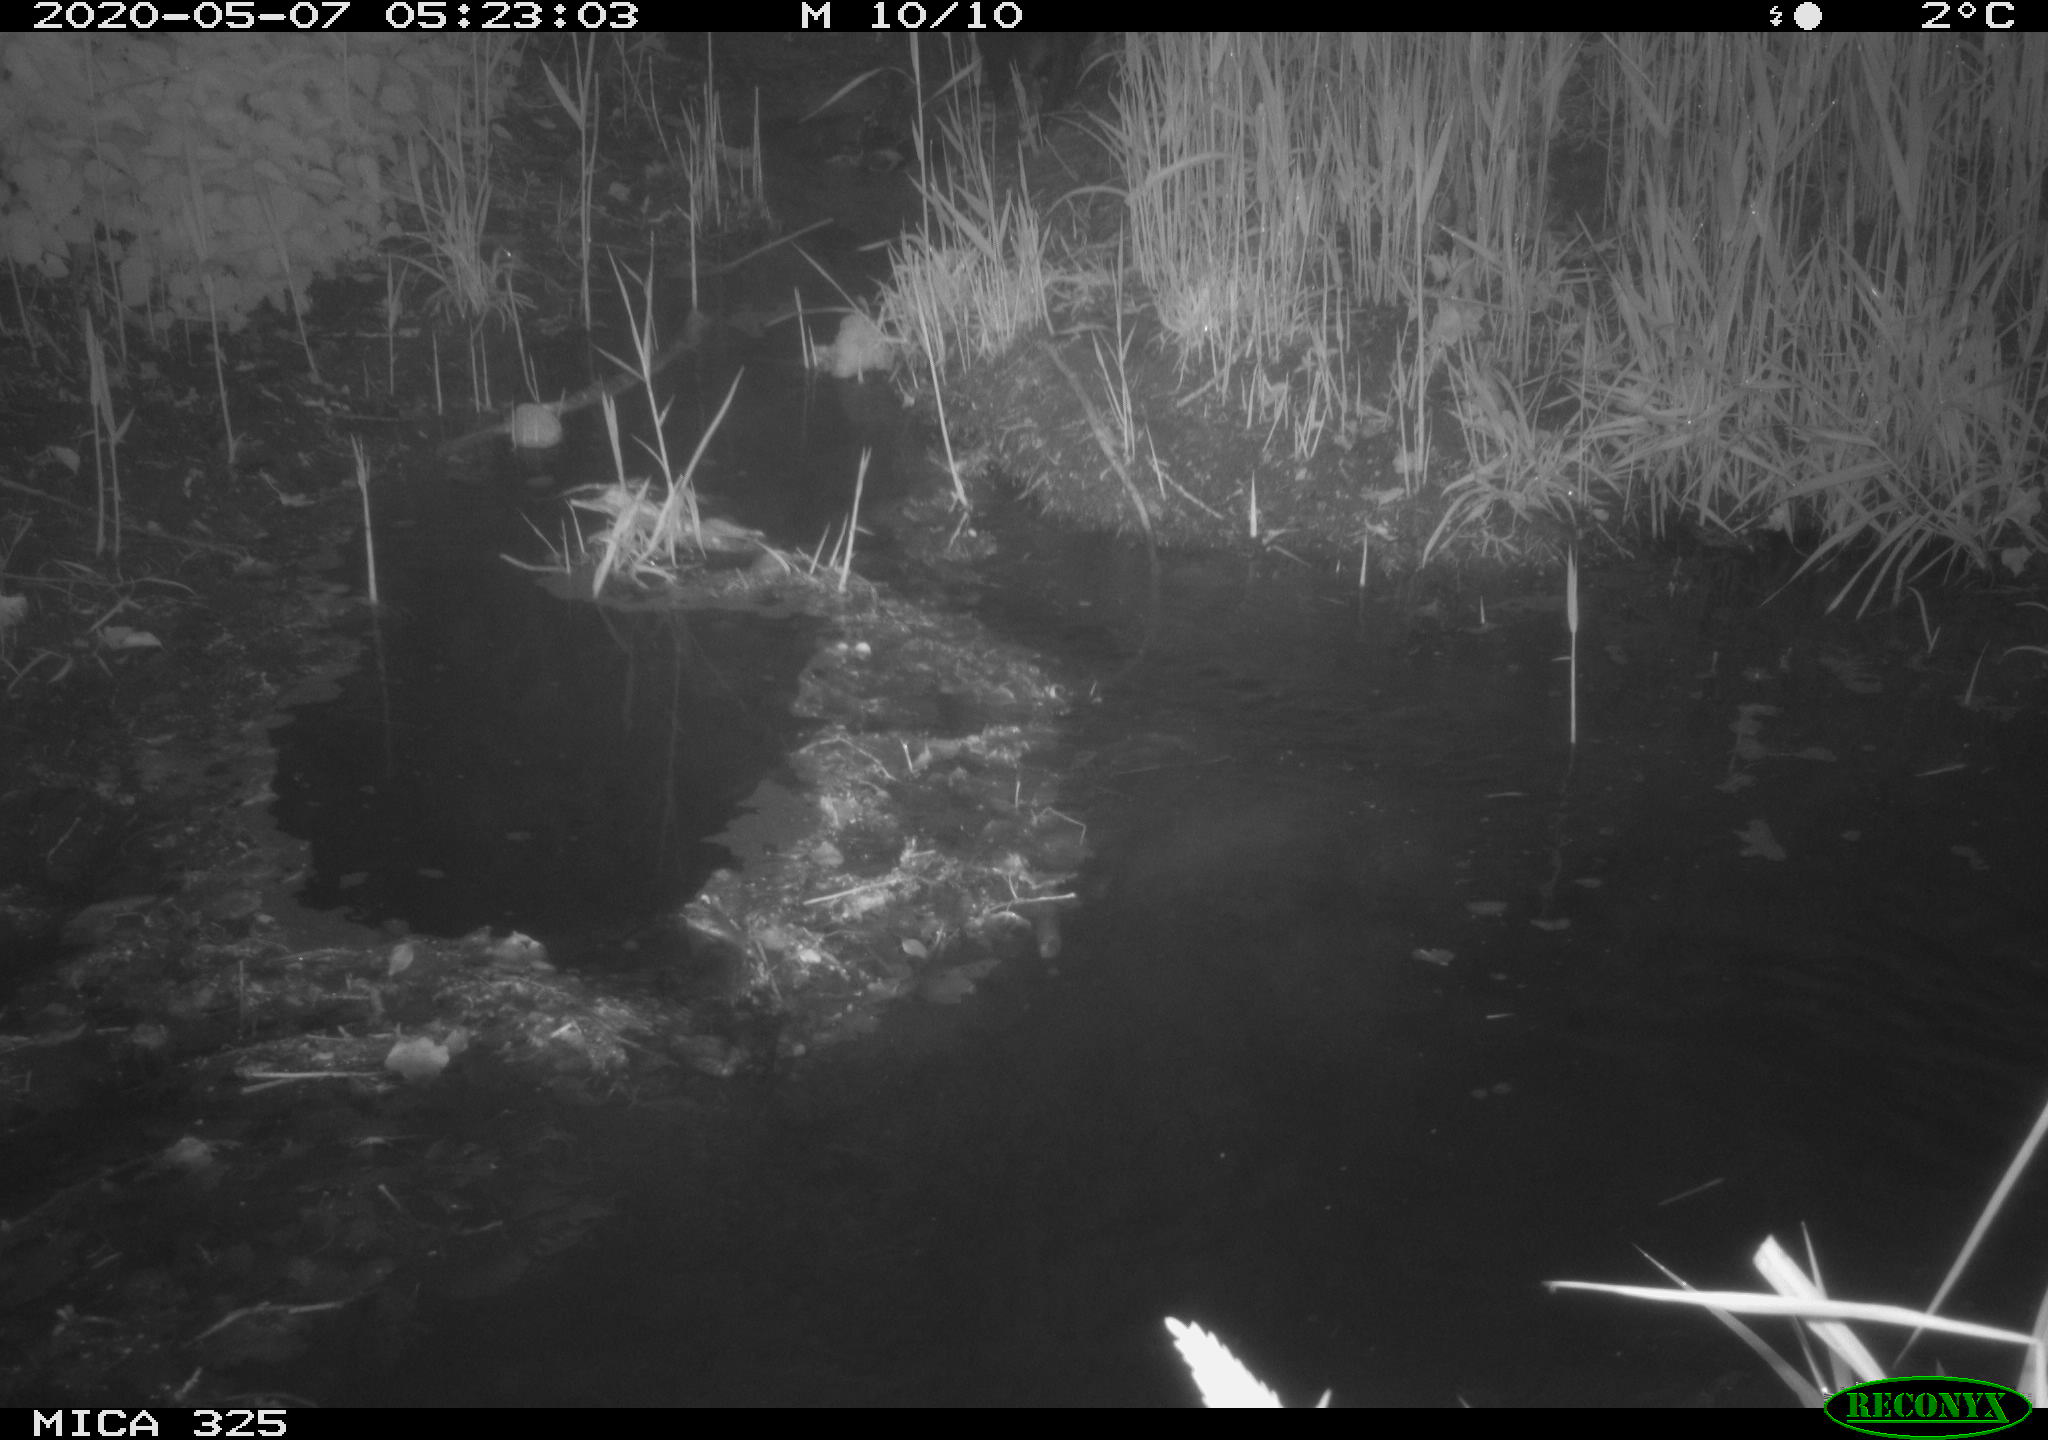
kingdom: Animalia
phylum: Chordata
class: Mammalia
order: Rodentia
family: Myocastoridae
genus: Myocastor
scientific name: Myocastor coypus
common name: Coypu
